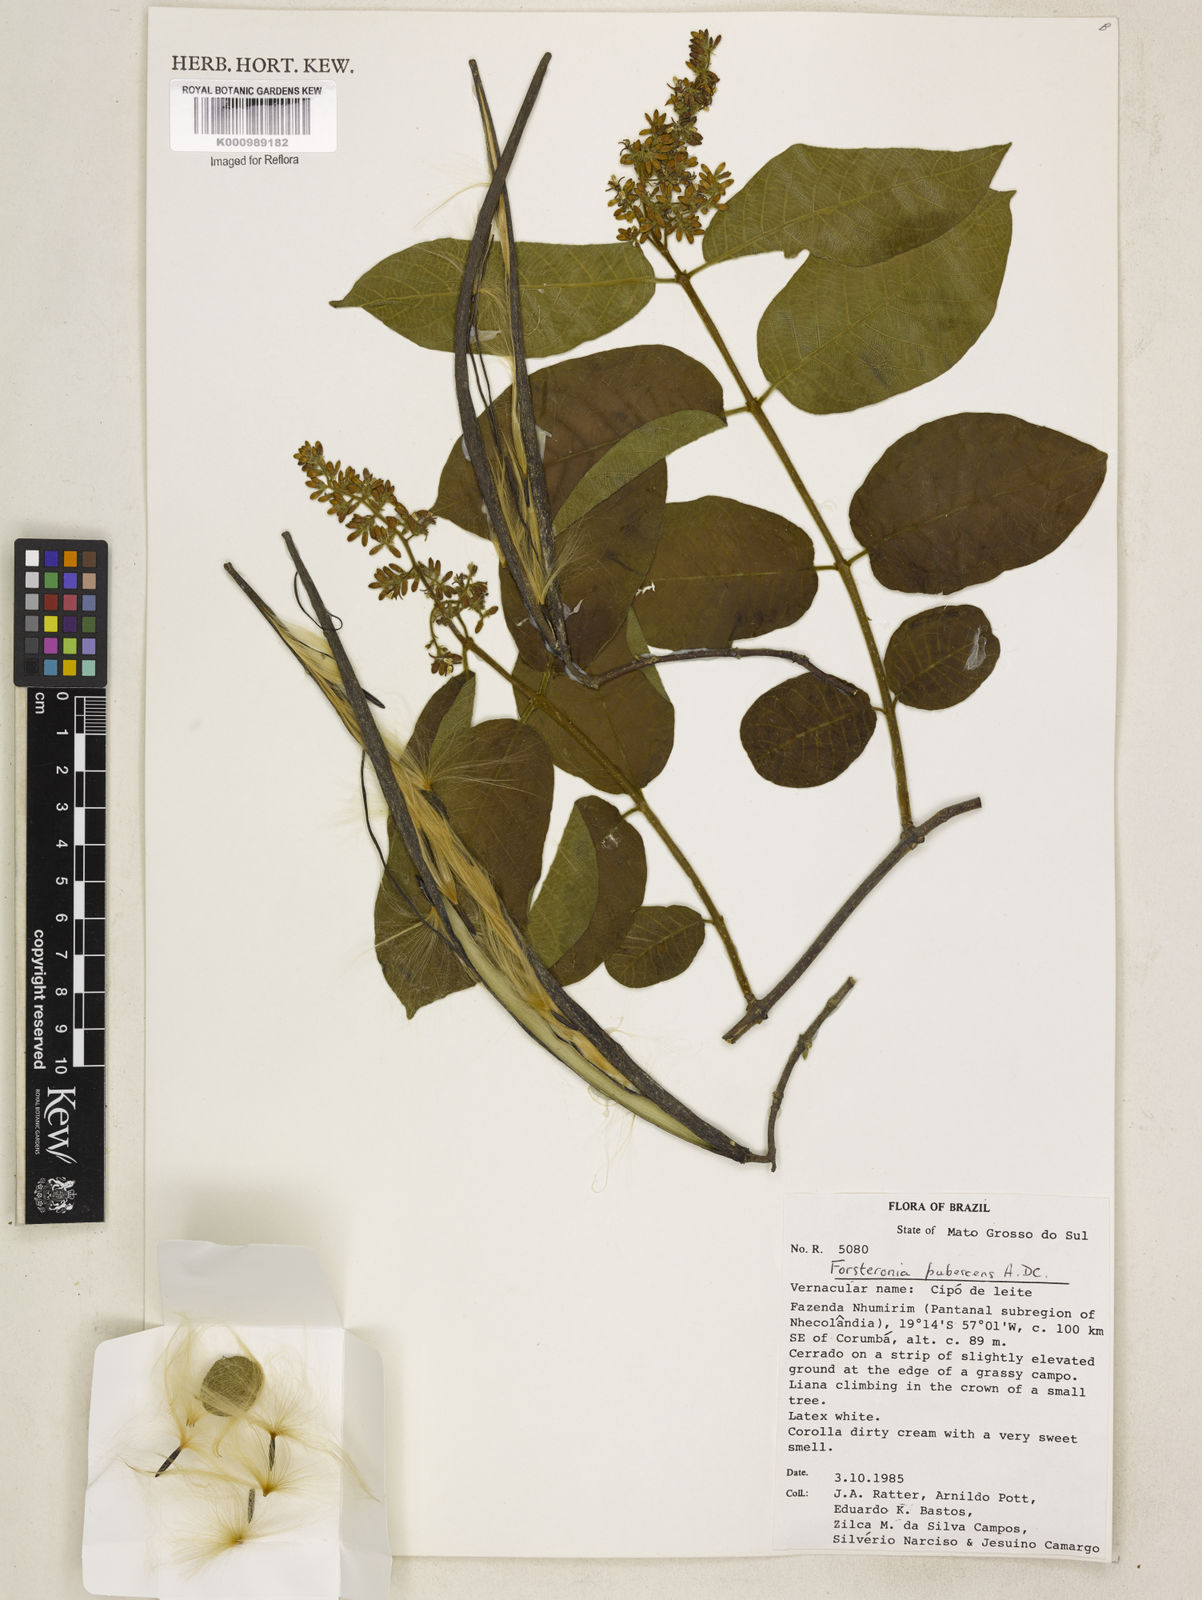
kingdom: Plantae
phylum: Tracheophyta
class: Magnoliopsida
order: Gentianales
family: Apocynaceae
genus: Forsteronia
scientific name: Forsteronia
